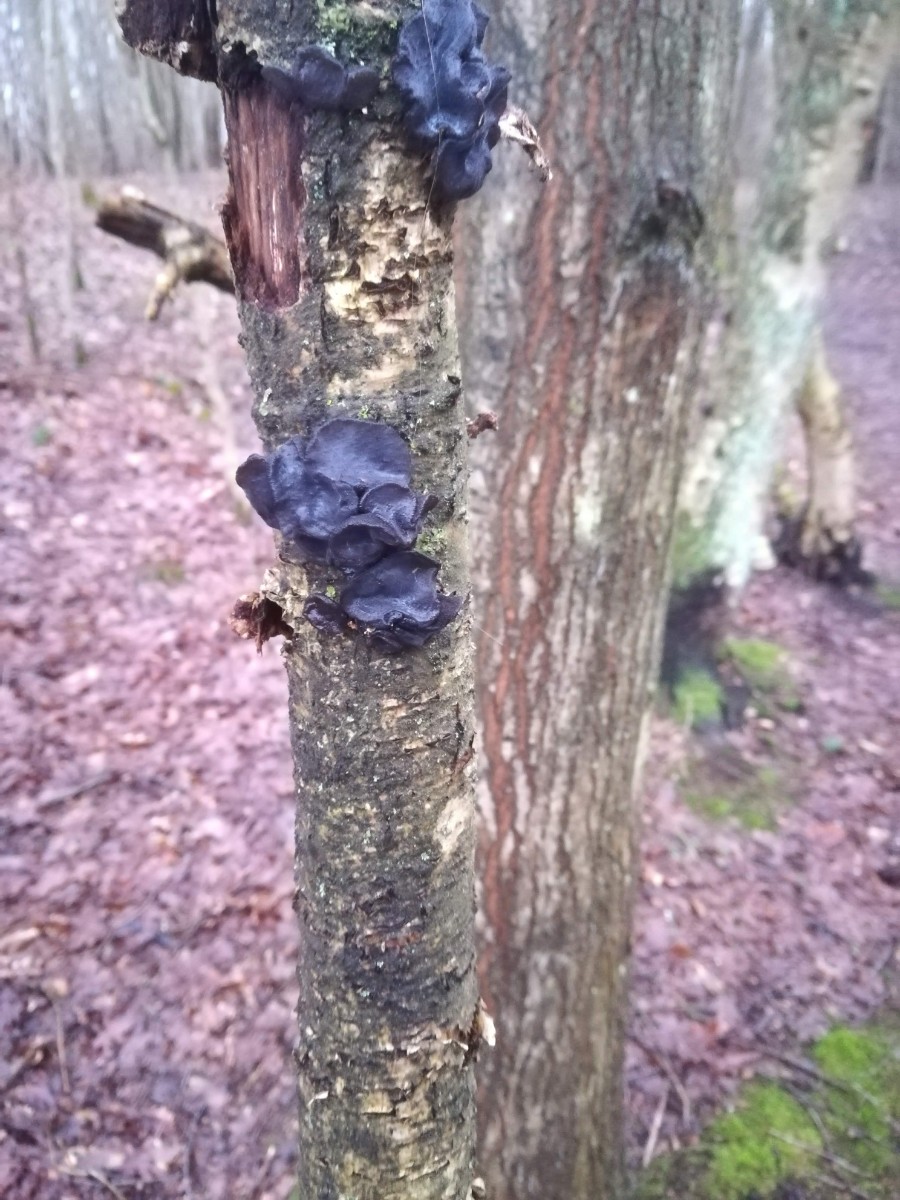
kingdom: Fungi
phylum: Basidiomycota
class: Agaricomycetes
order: Auriculariales
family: Auriculariaceae
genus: Exidia
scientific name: Exidia glandulosa
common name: ege-bævretop
